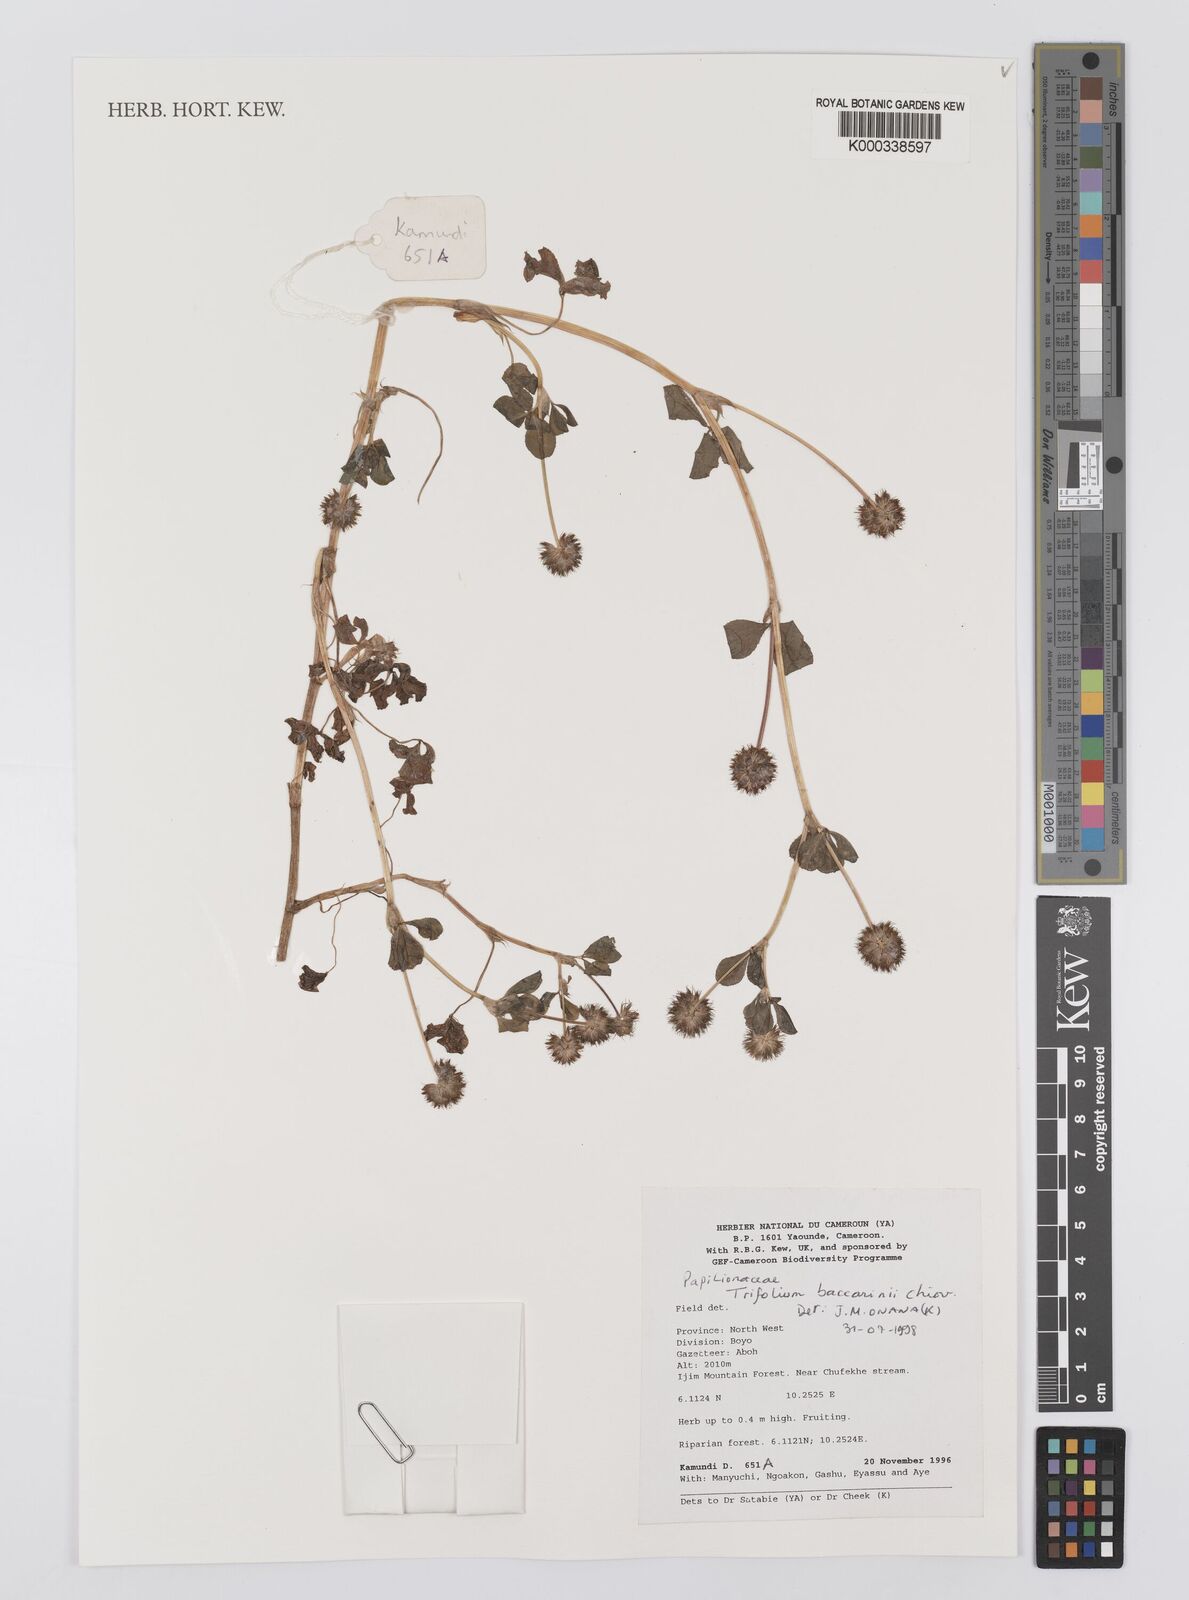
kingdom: Plantae
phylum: Tracheophyta
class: Magnoliopsida
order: Fabales
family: Fabaceae
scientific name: Fabaceae
